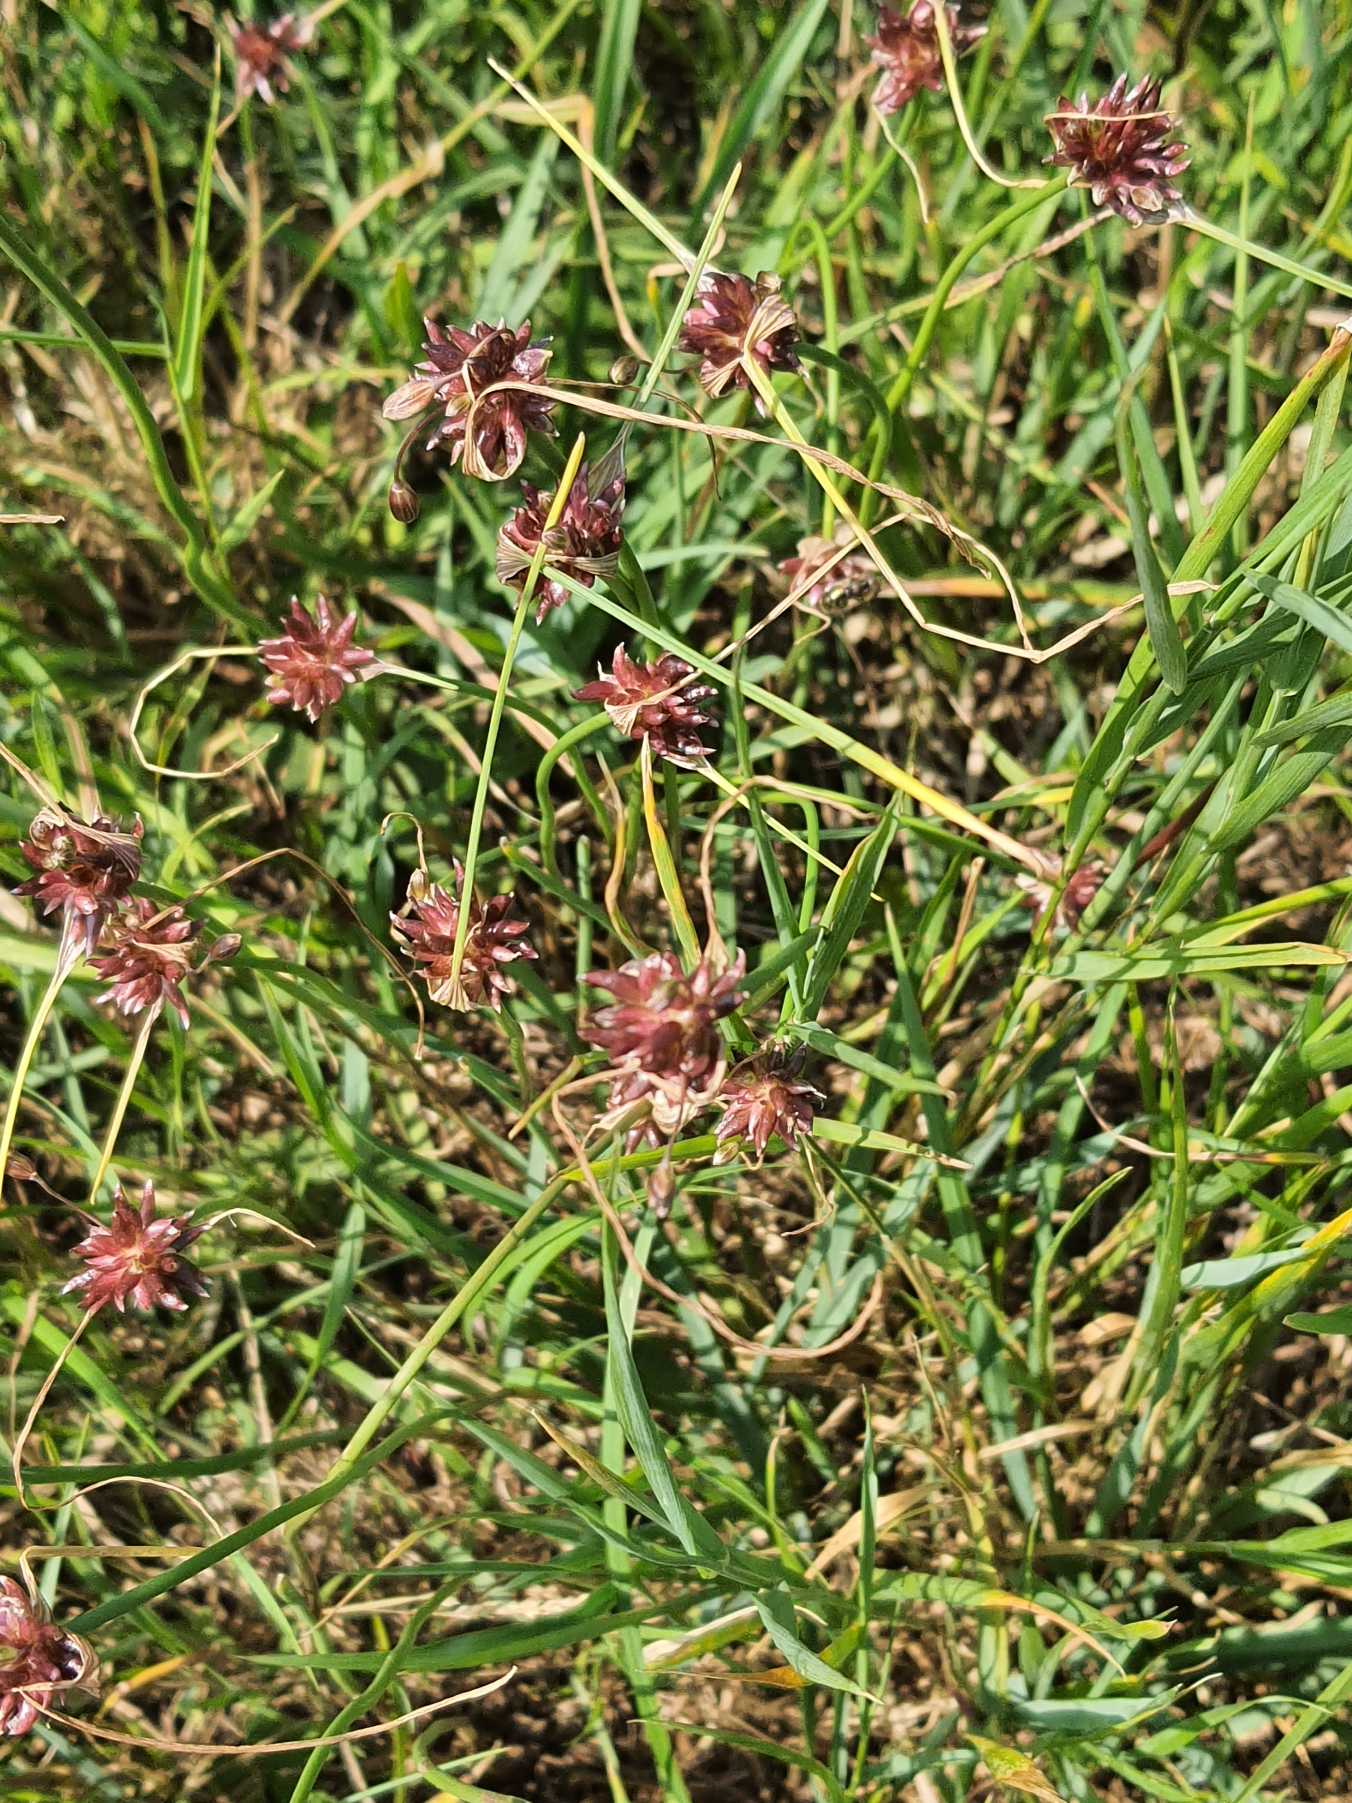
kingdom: Plantae
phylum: Tracheophyta
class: Liliopsida
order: Asparagales
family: Amaryllidaceae
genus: Allium
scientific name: Allium vineale
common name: Sand-løg
